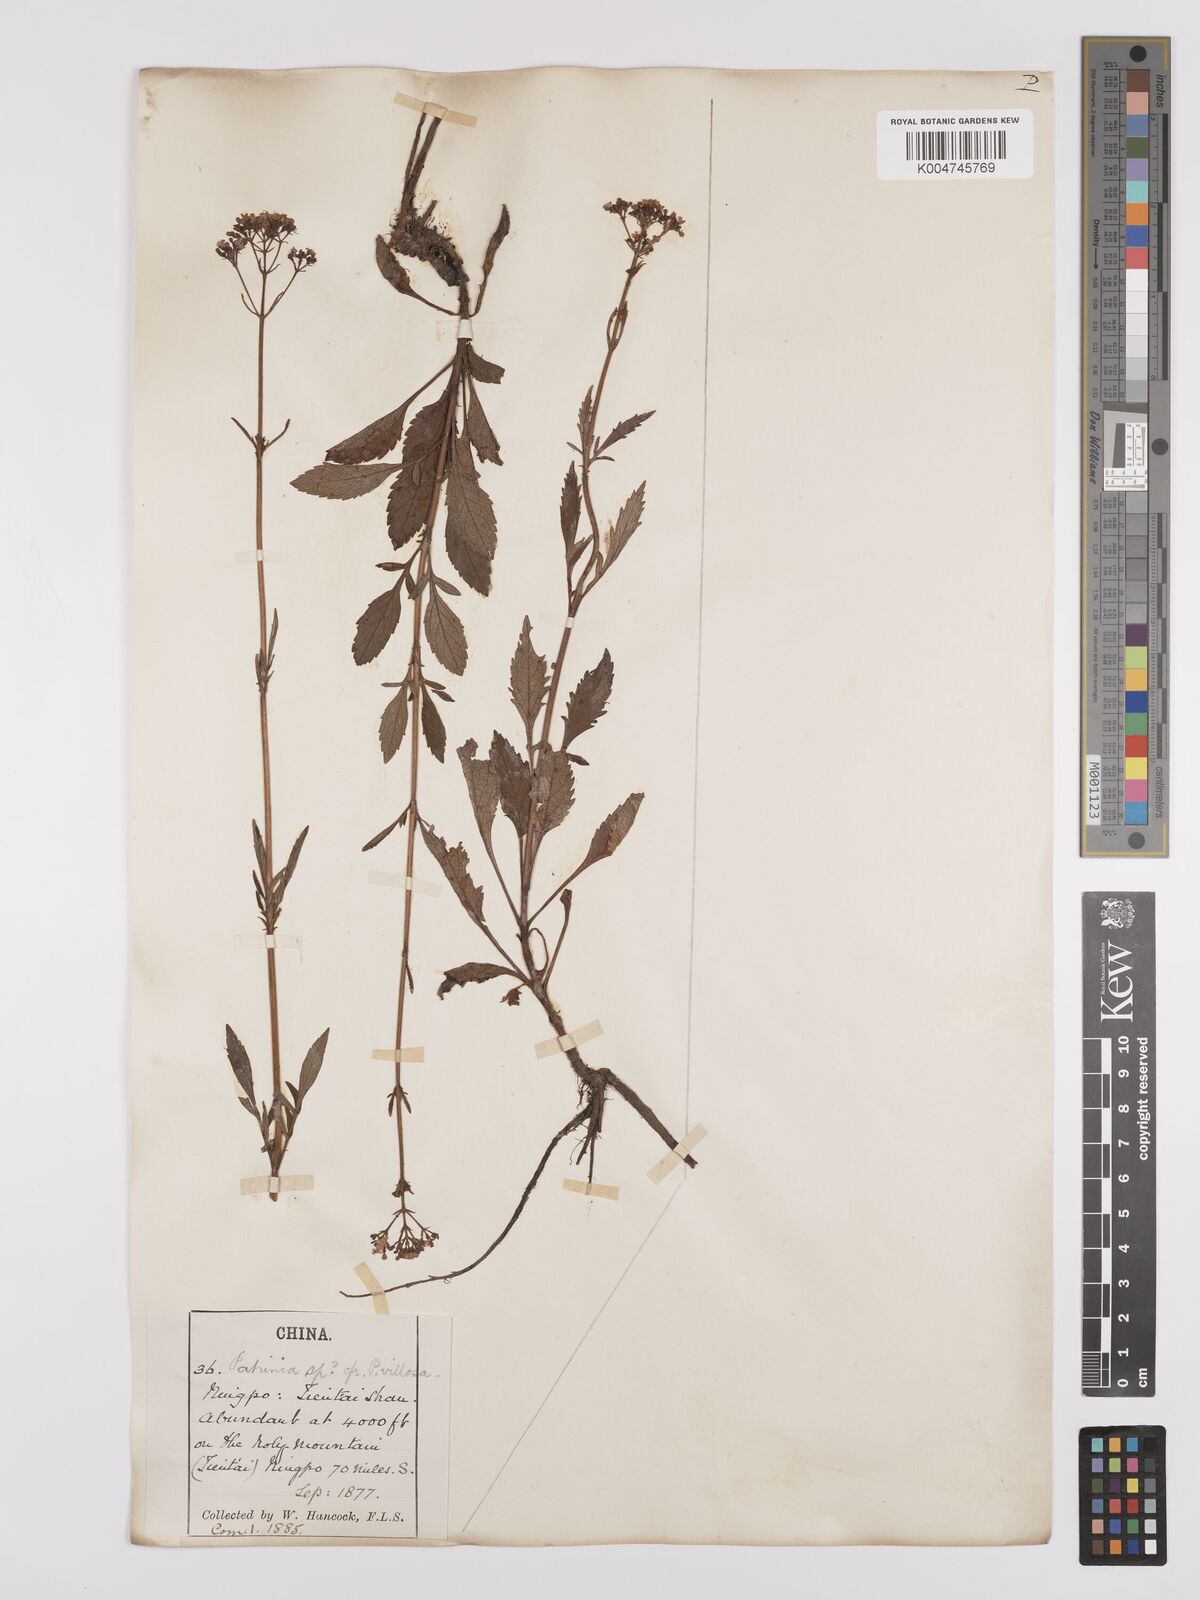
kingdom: Plantae
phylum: Tracheophyta
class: Magnoliopsida
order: Dipsacales
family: Caprifoliaceae
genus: Patrinia
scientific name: Patrinia
